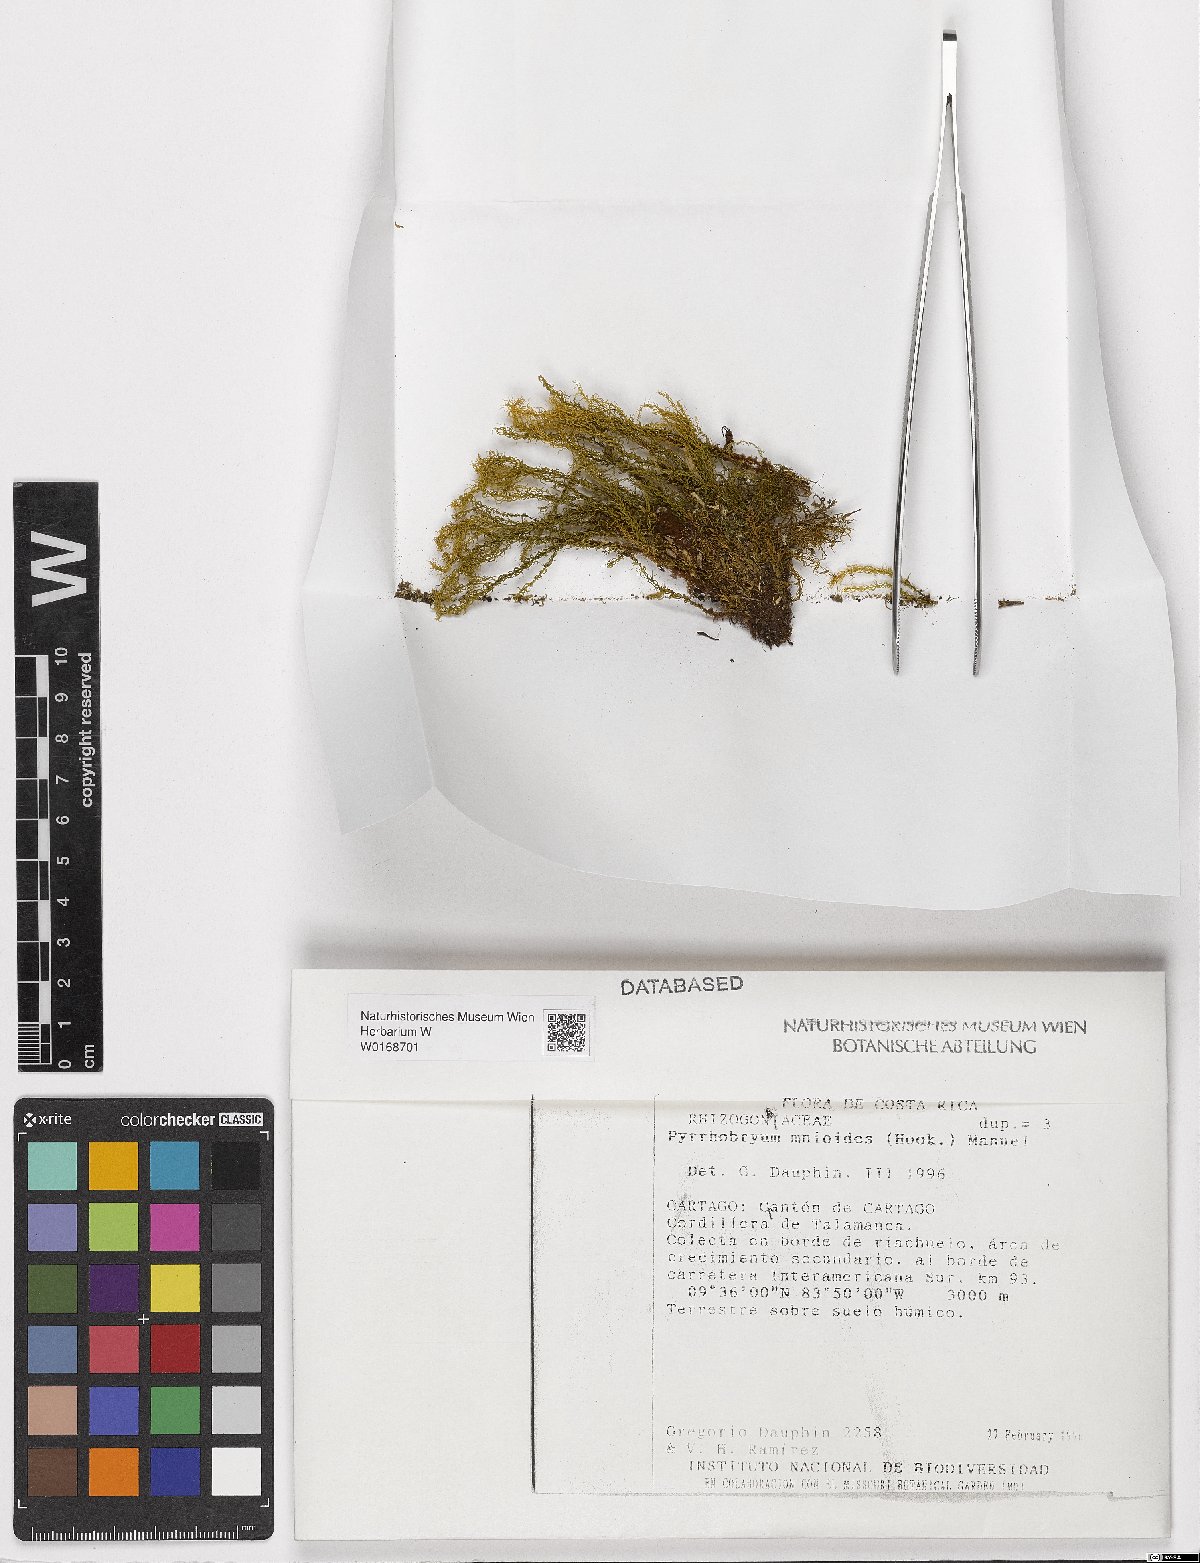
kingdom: Plantae
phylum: Bryophyta
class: Bryopsida
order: Aulacomniales
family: Aulacomniaceae
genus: Hymenodontopsis
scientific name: Hymenodontopsis mnioides
